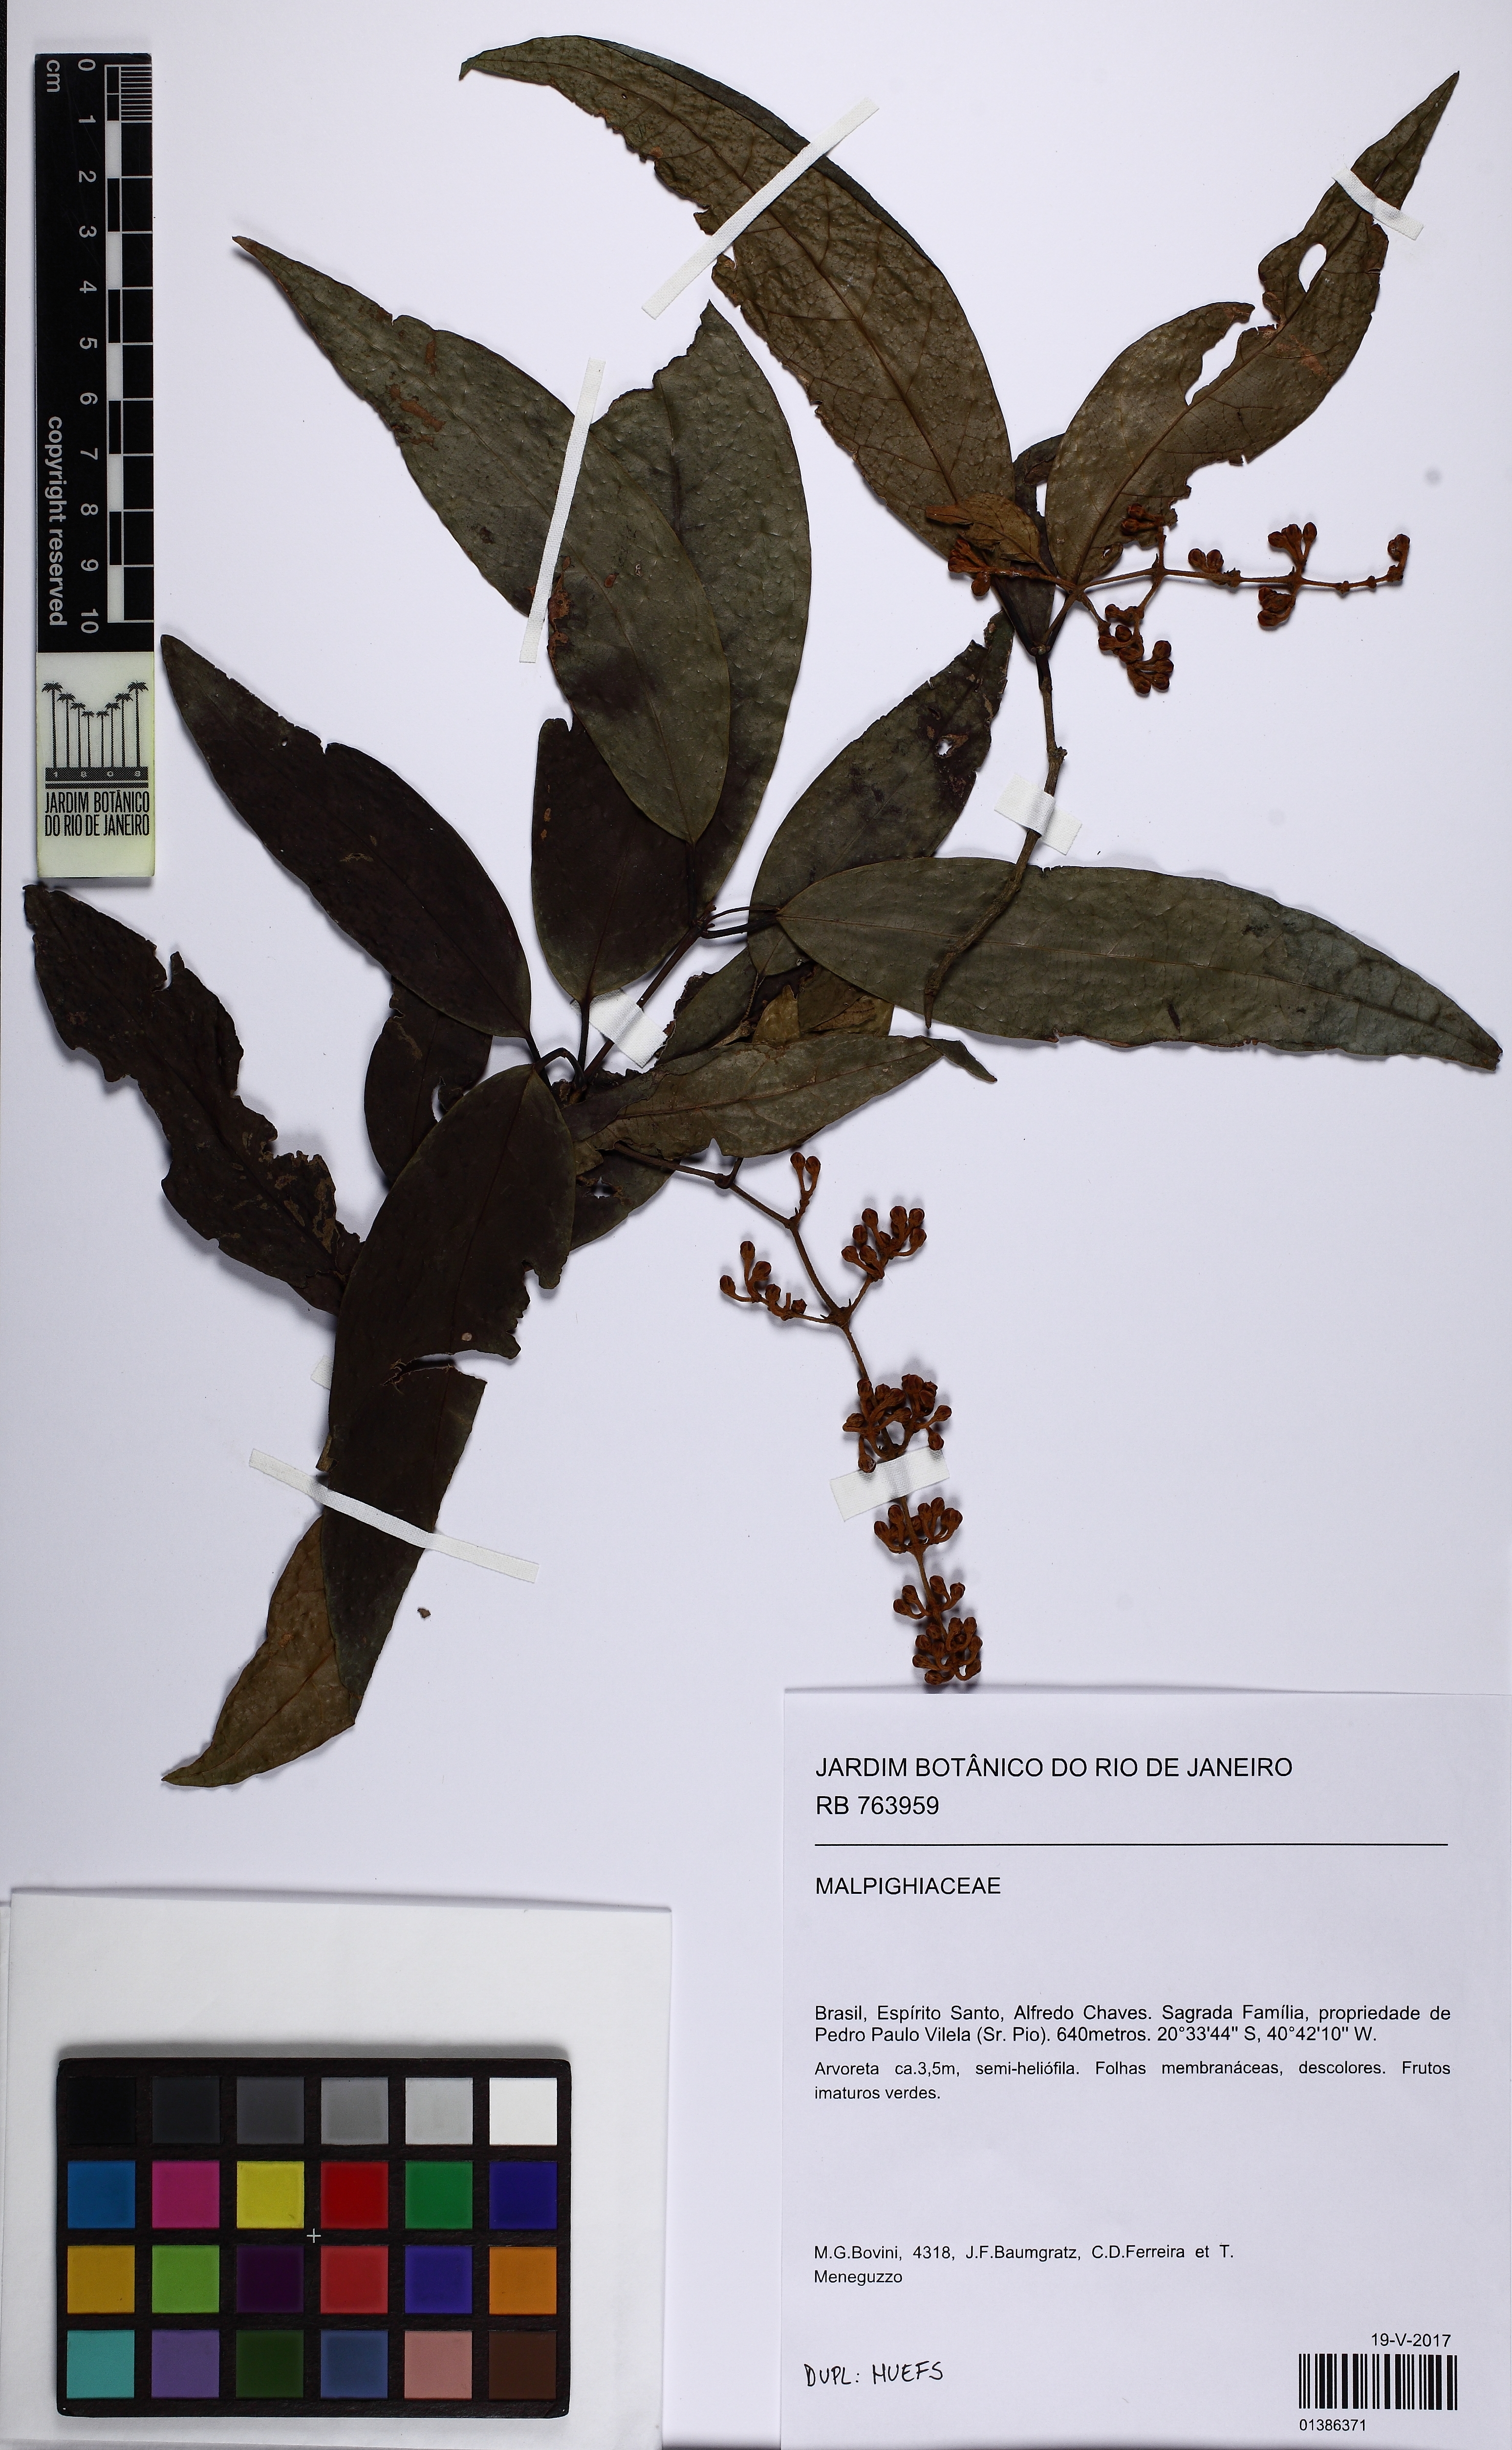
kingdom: Plantae
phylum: Tracheophyta
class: Magnoliopsida
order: Malpighiales
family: Malpighiaceae
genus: Heteropterys
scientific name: Heteropterys nordestina
